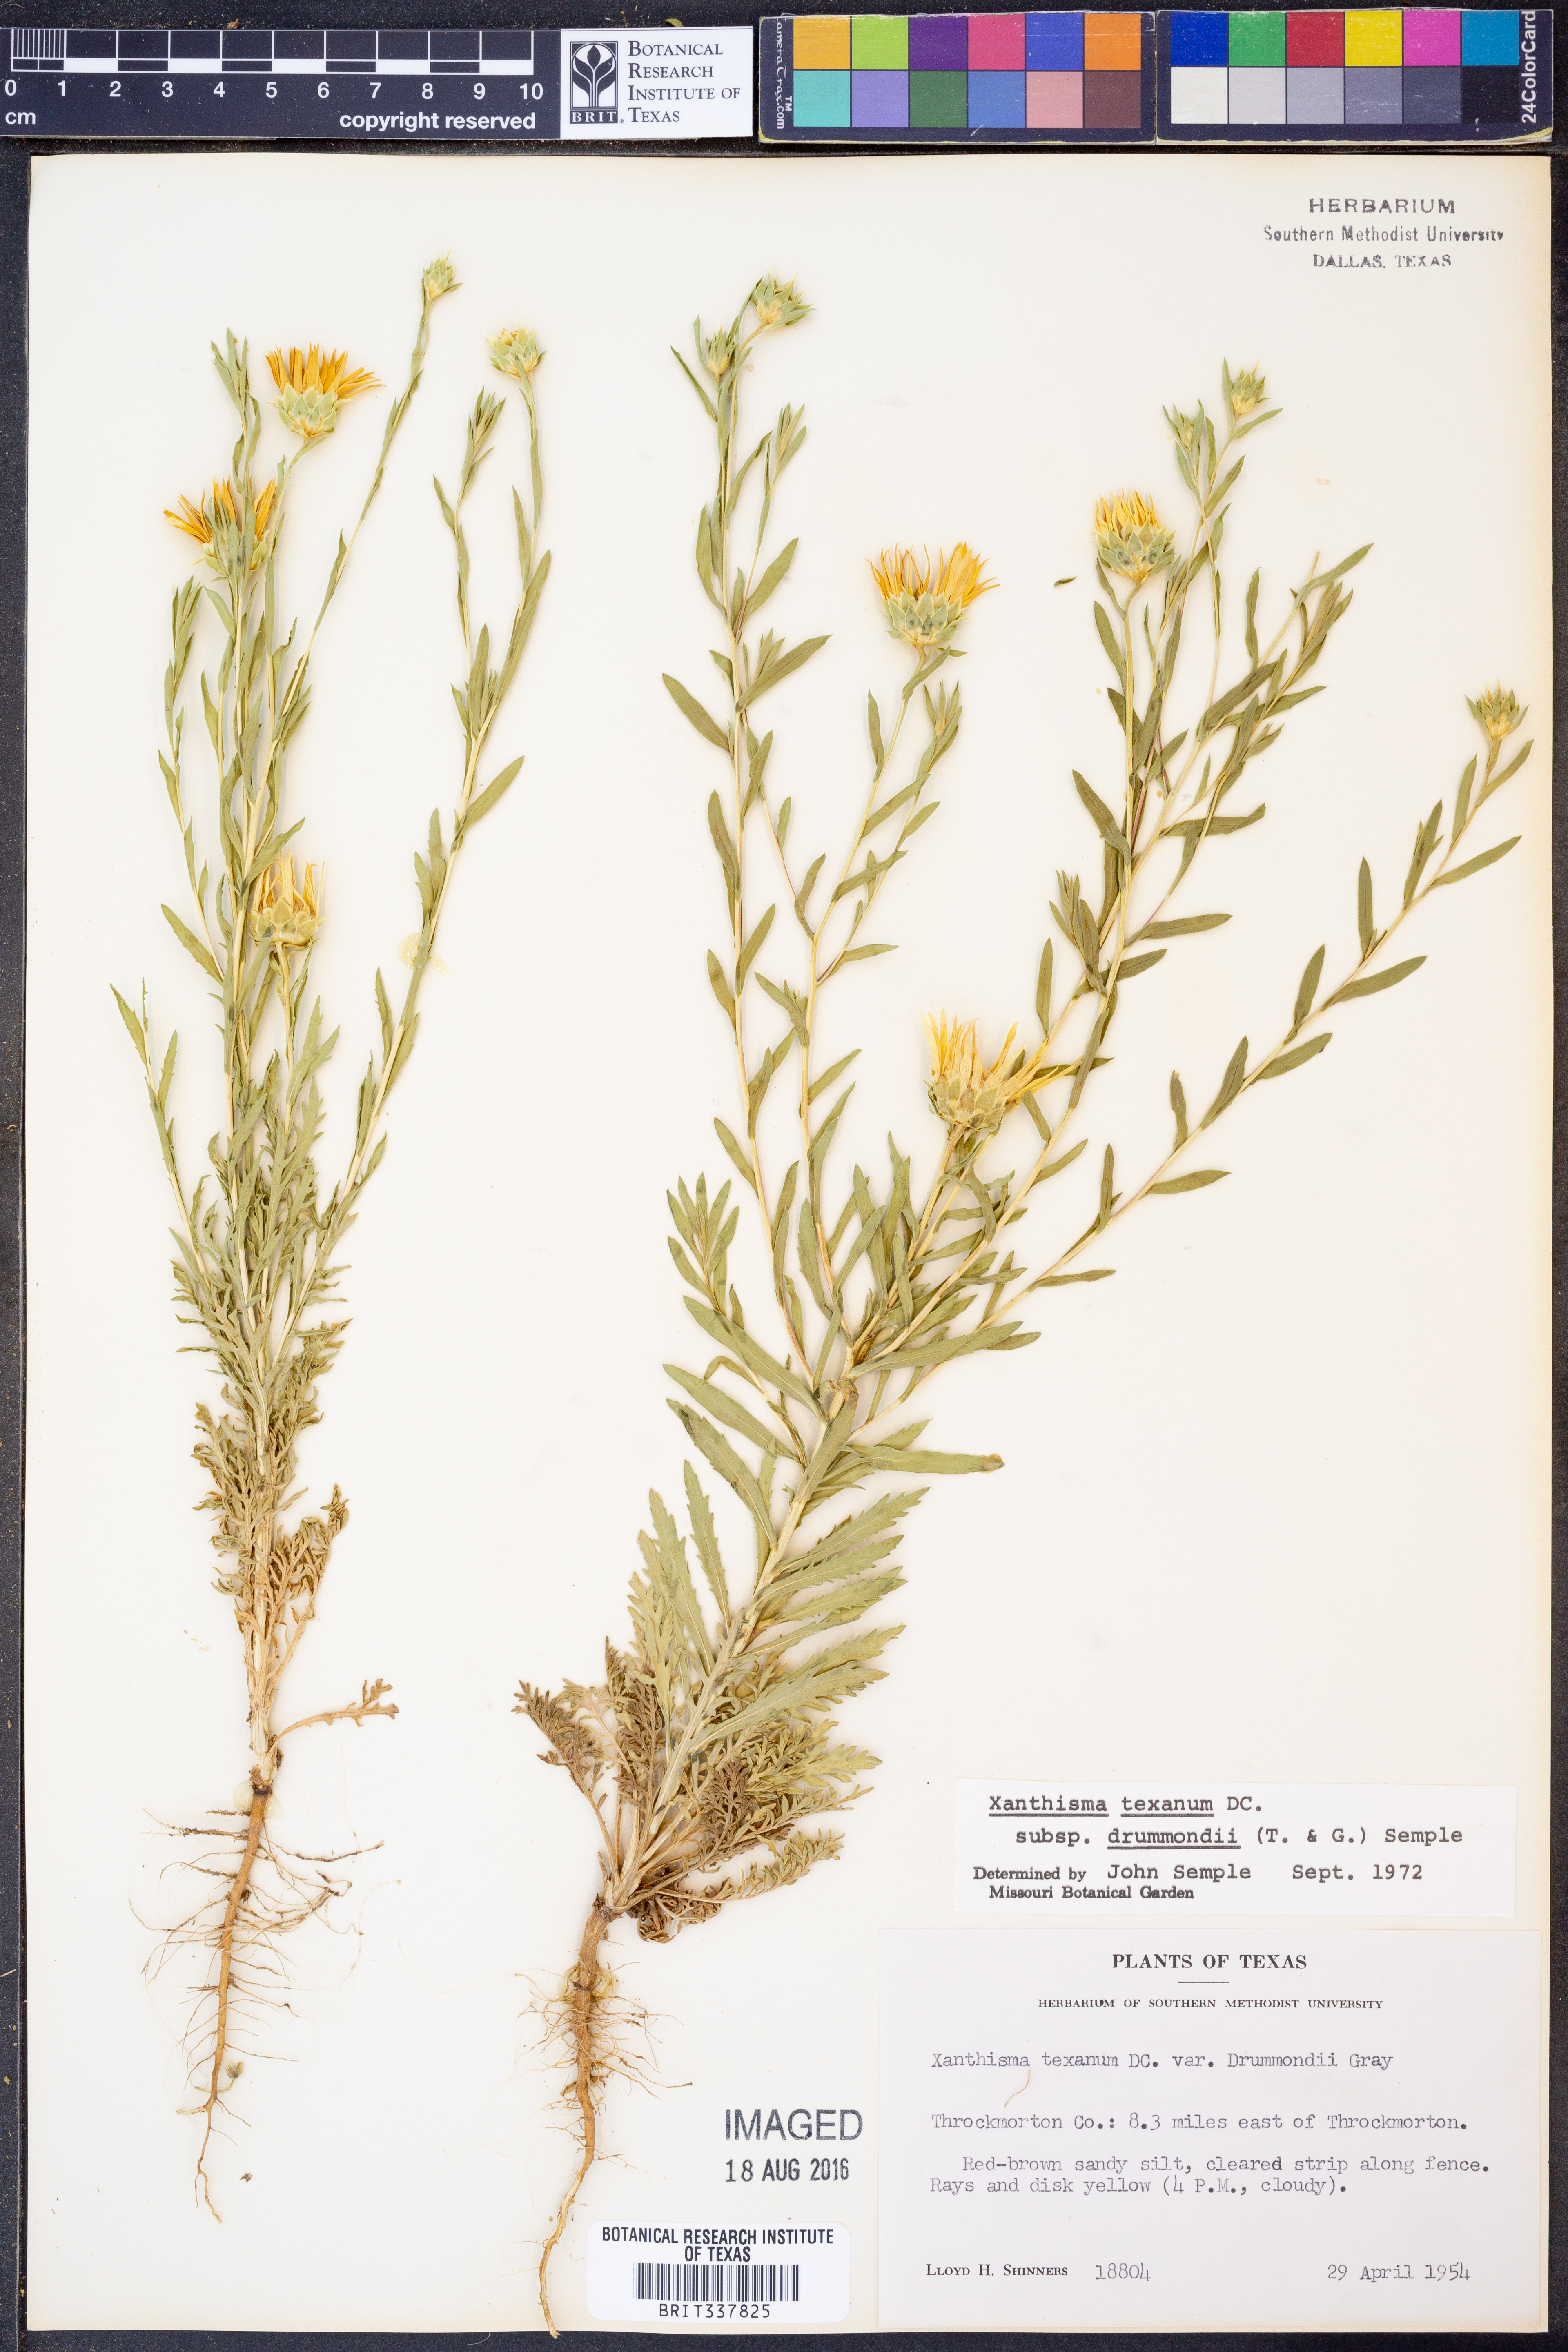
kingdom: Plantae
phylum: Tracheophyta
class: Magnoliopsida
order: Asterales
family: Asteraceae
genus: Xanthisma
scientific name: Xanthisma texanum
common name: Texas sleepy daisy
